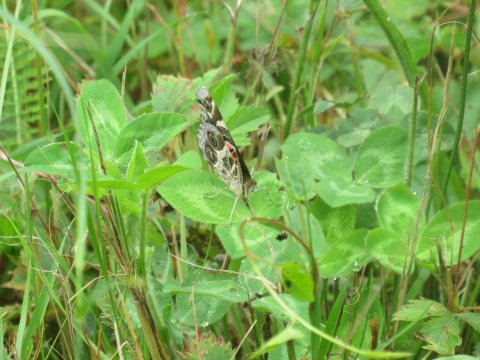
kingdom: Animalia
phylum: Arthropoda
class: Insecta
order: Lepidoptera
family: Nymphalidae
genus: Vanessa
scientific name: Vanessa virginiensis
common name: American Lady
